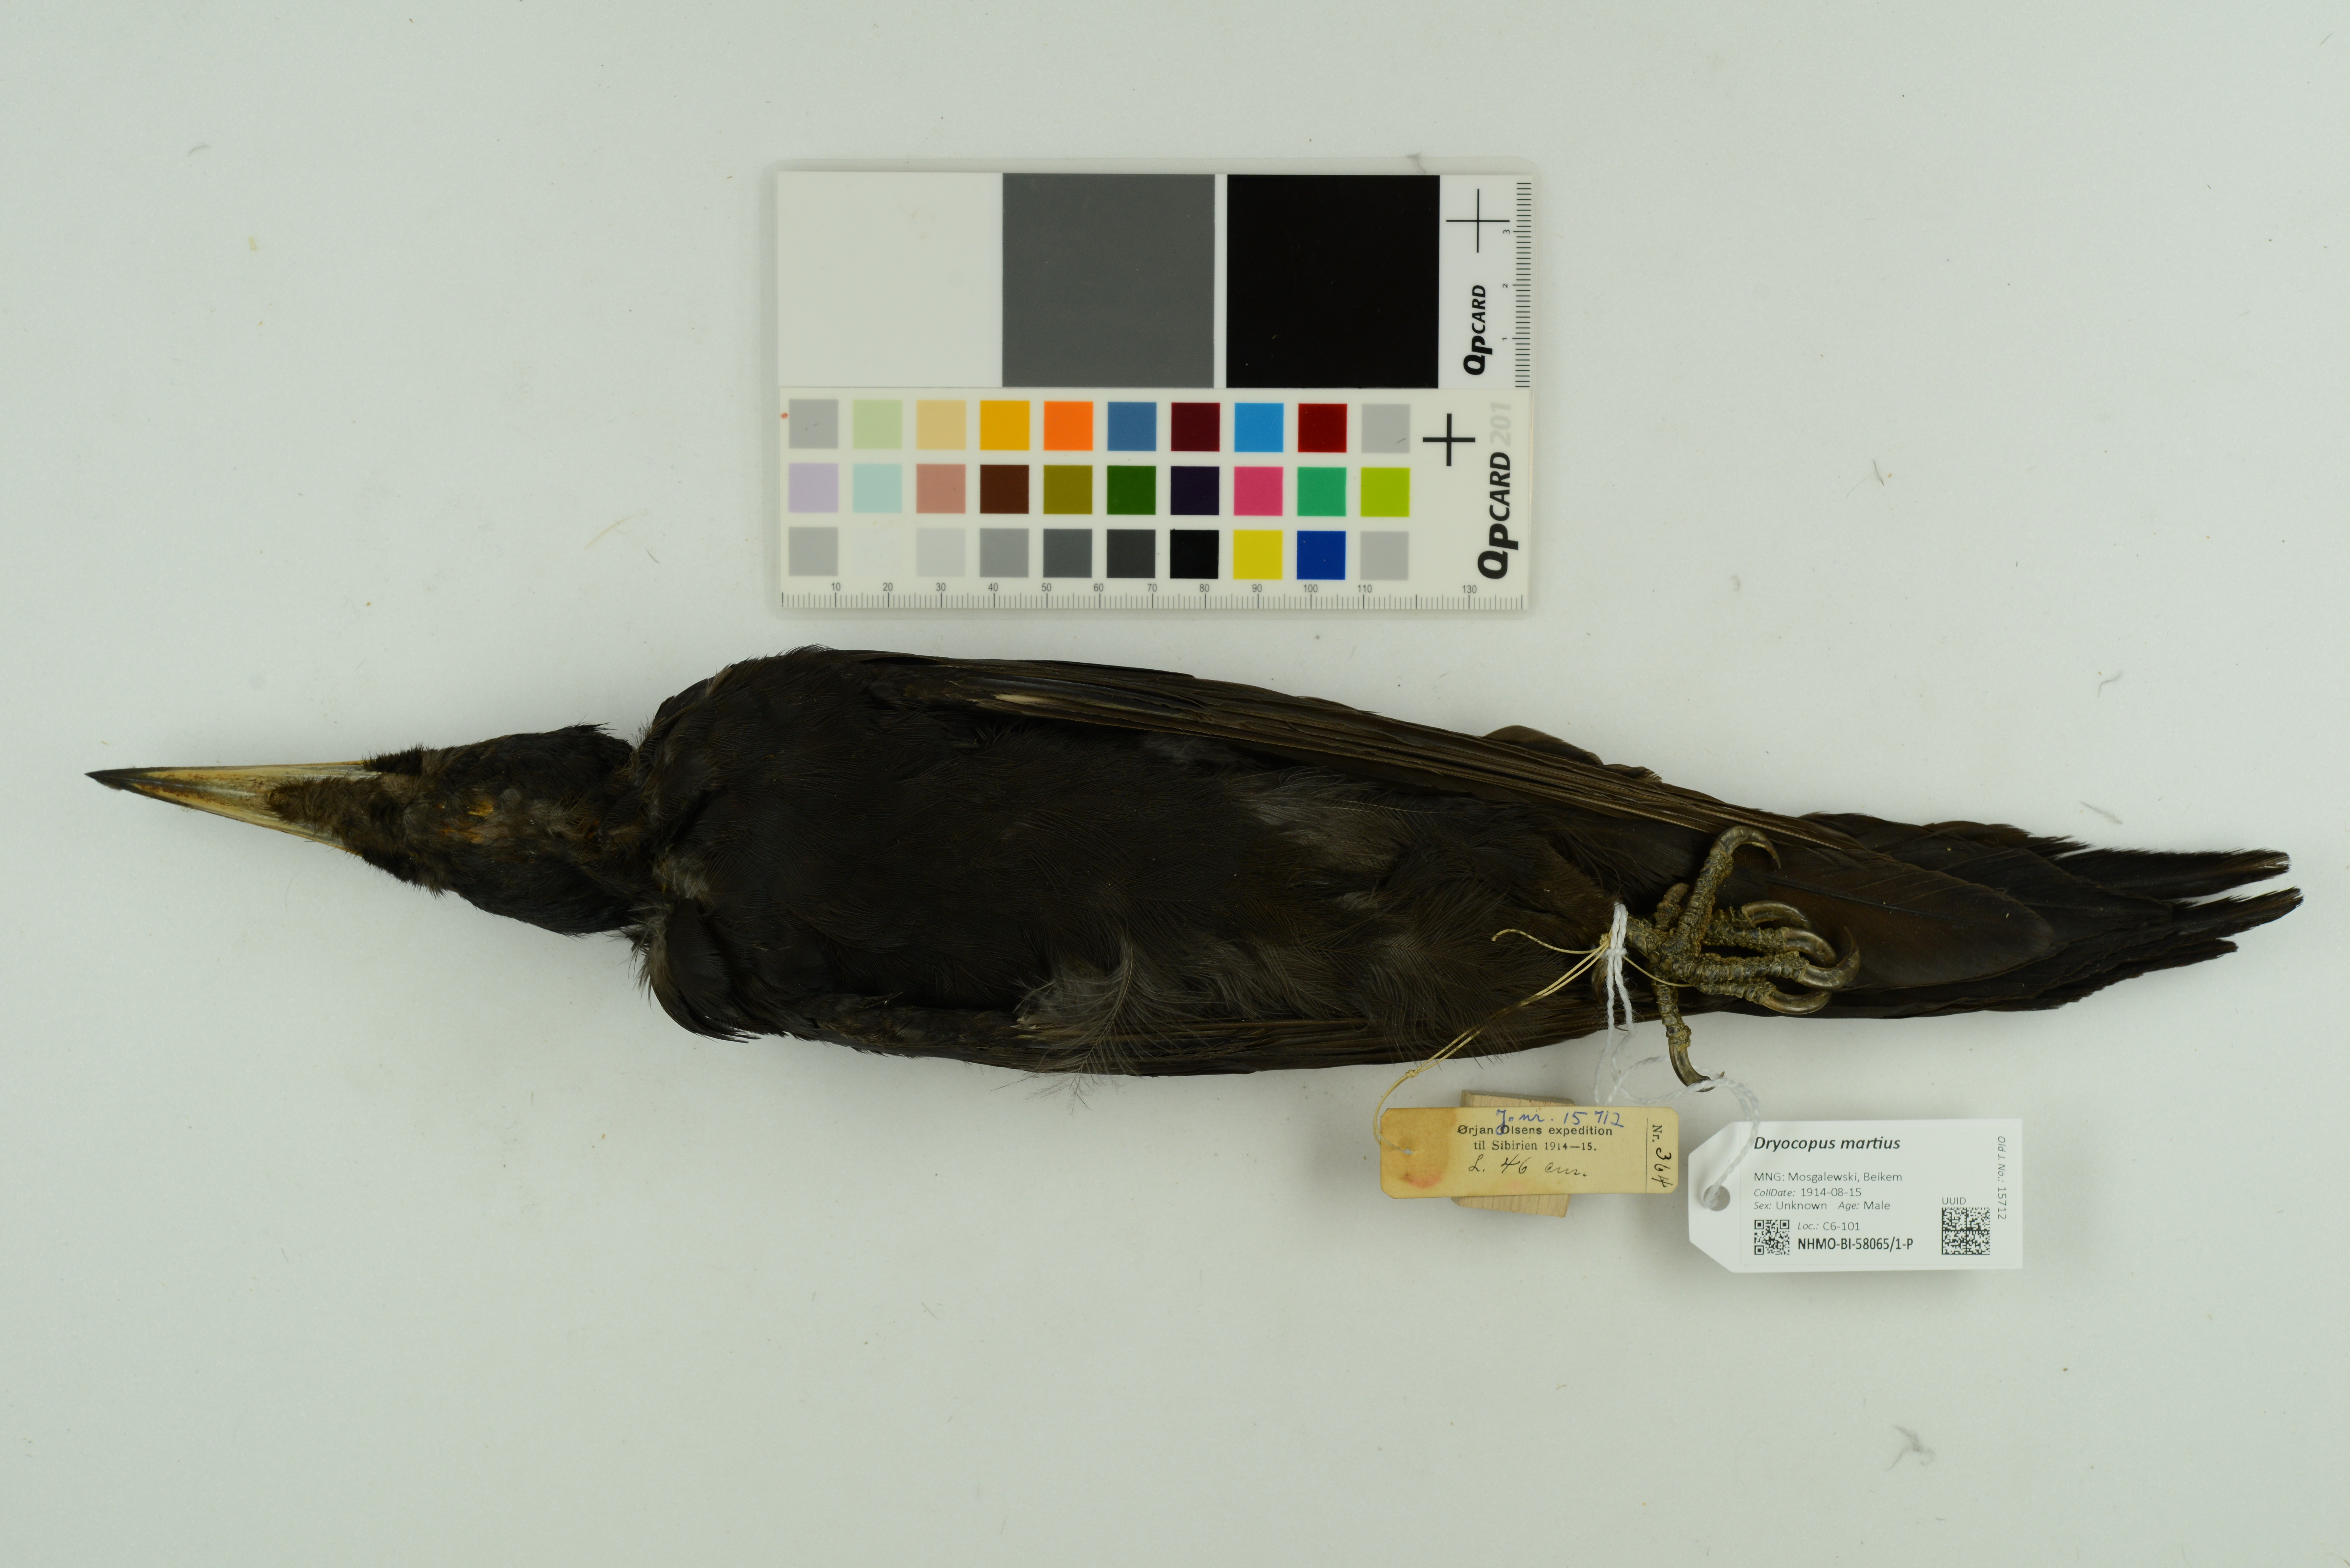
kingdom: Animalia
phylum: Chordata
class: Aves
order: Piciformes
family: Picidae
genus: Dryocopus
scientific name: Dryocopus martius
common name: Black woodpecker
